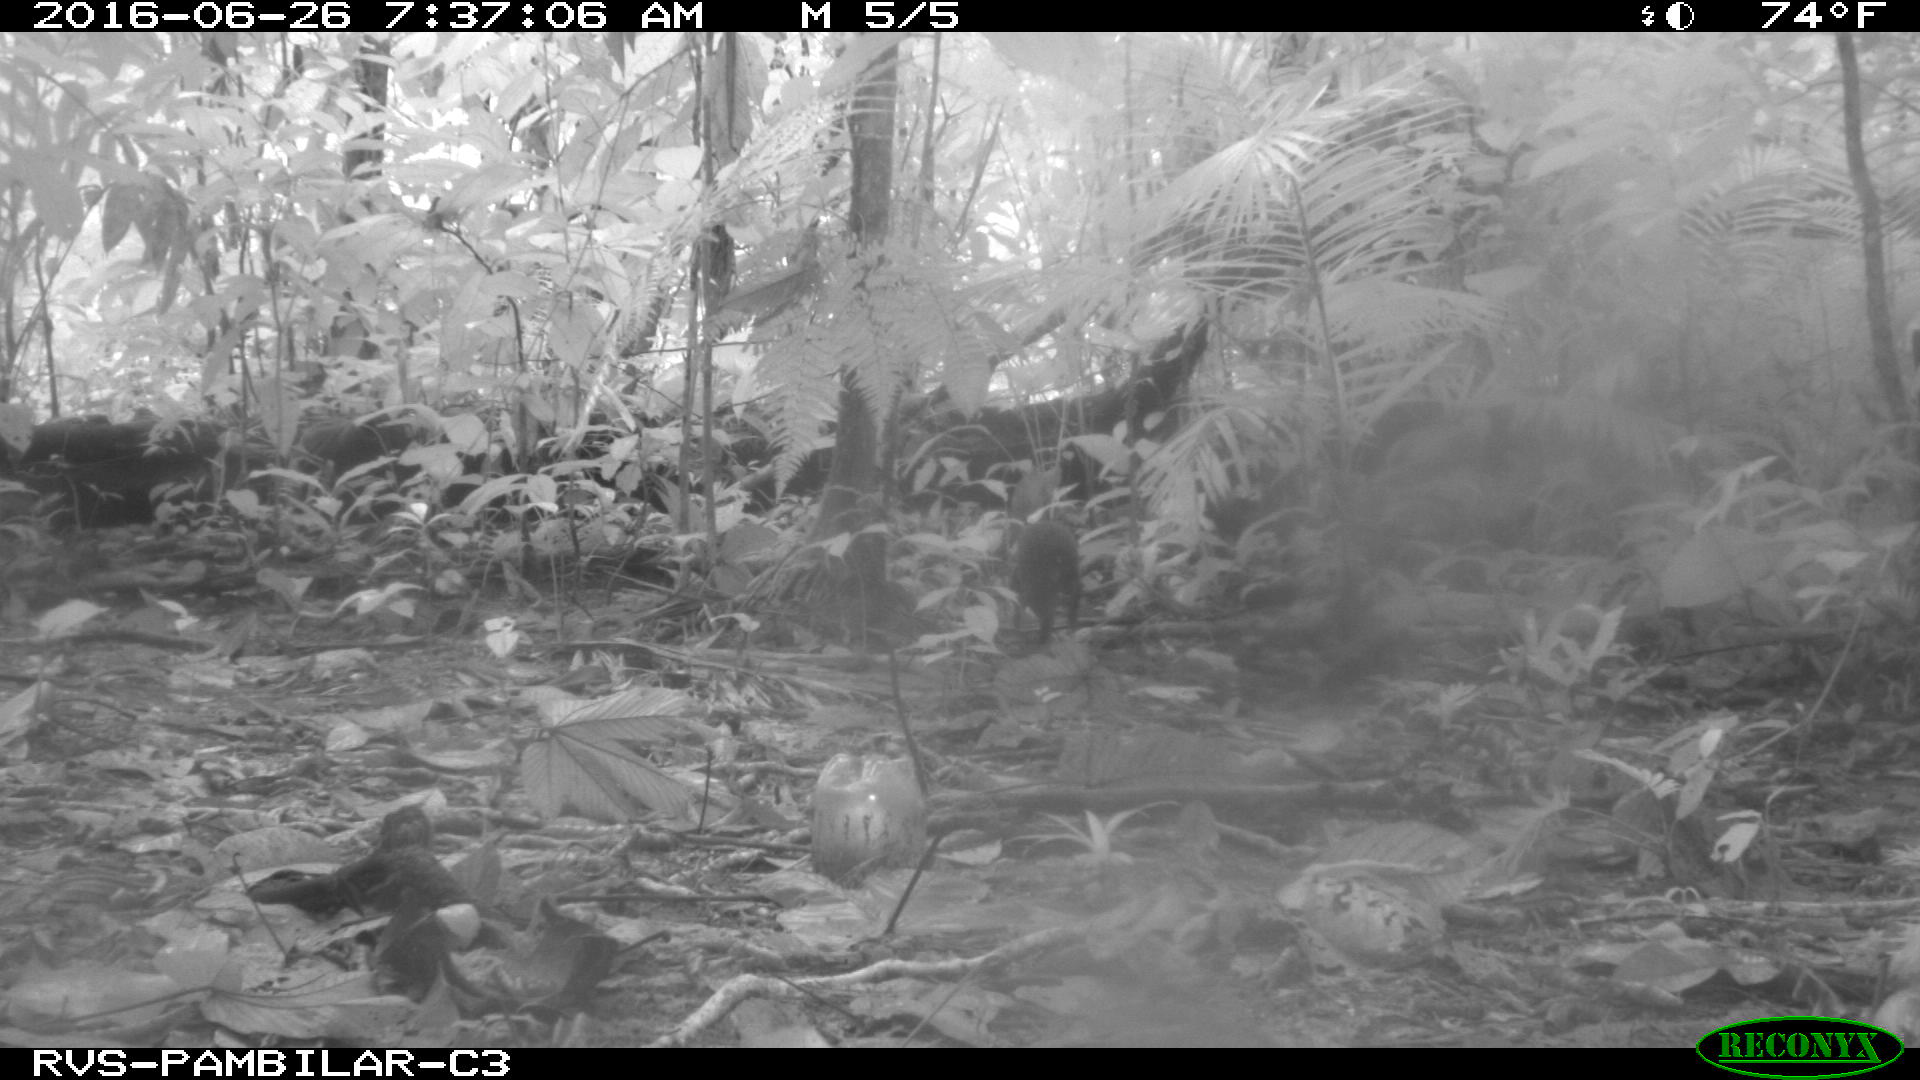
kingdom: Animalia
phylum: Chordata
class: Mammalia
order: Rodentia
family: Dasyproctidae
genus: Dasyprocta
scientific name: Dasyprocta punctata
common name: Central american agouti
